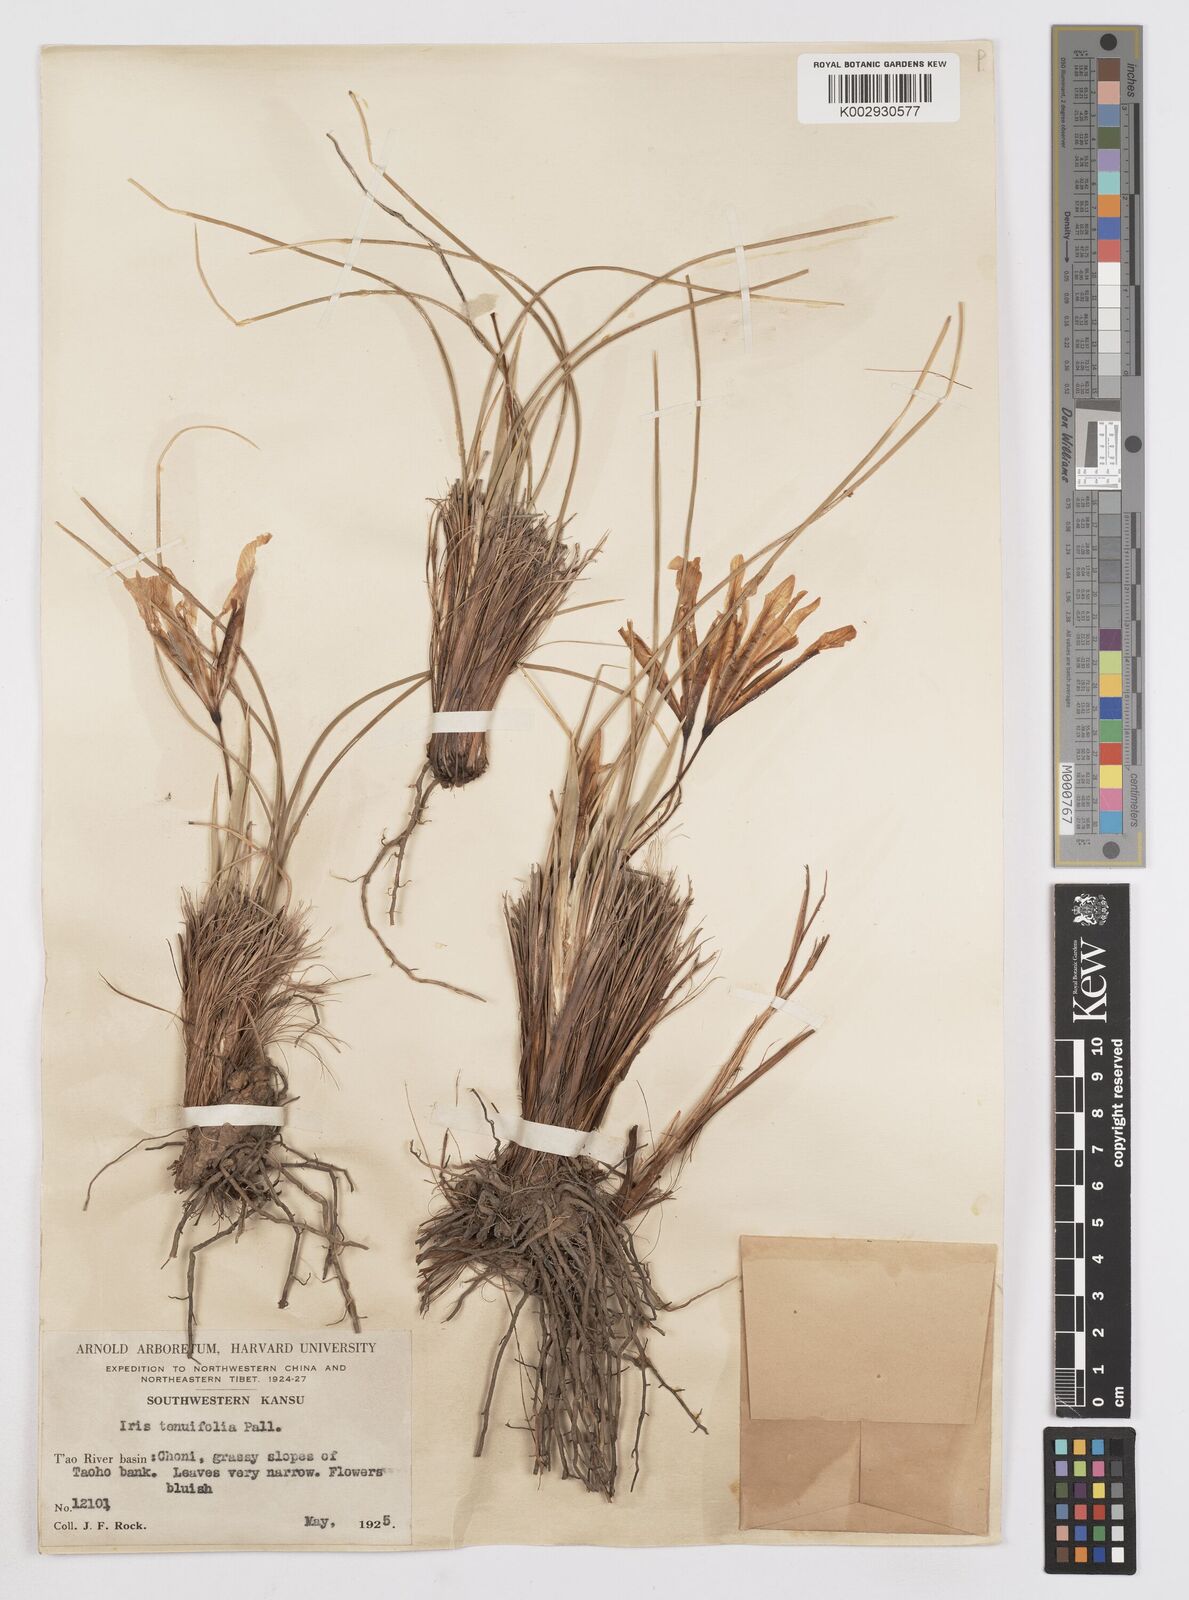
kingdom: Plantae
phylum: Tracheophyta
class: Liliopsida
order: Asparagales
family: Iridaceae
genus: Iris
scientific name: Iris tenuifolia
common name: Slender-leaf iris
